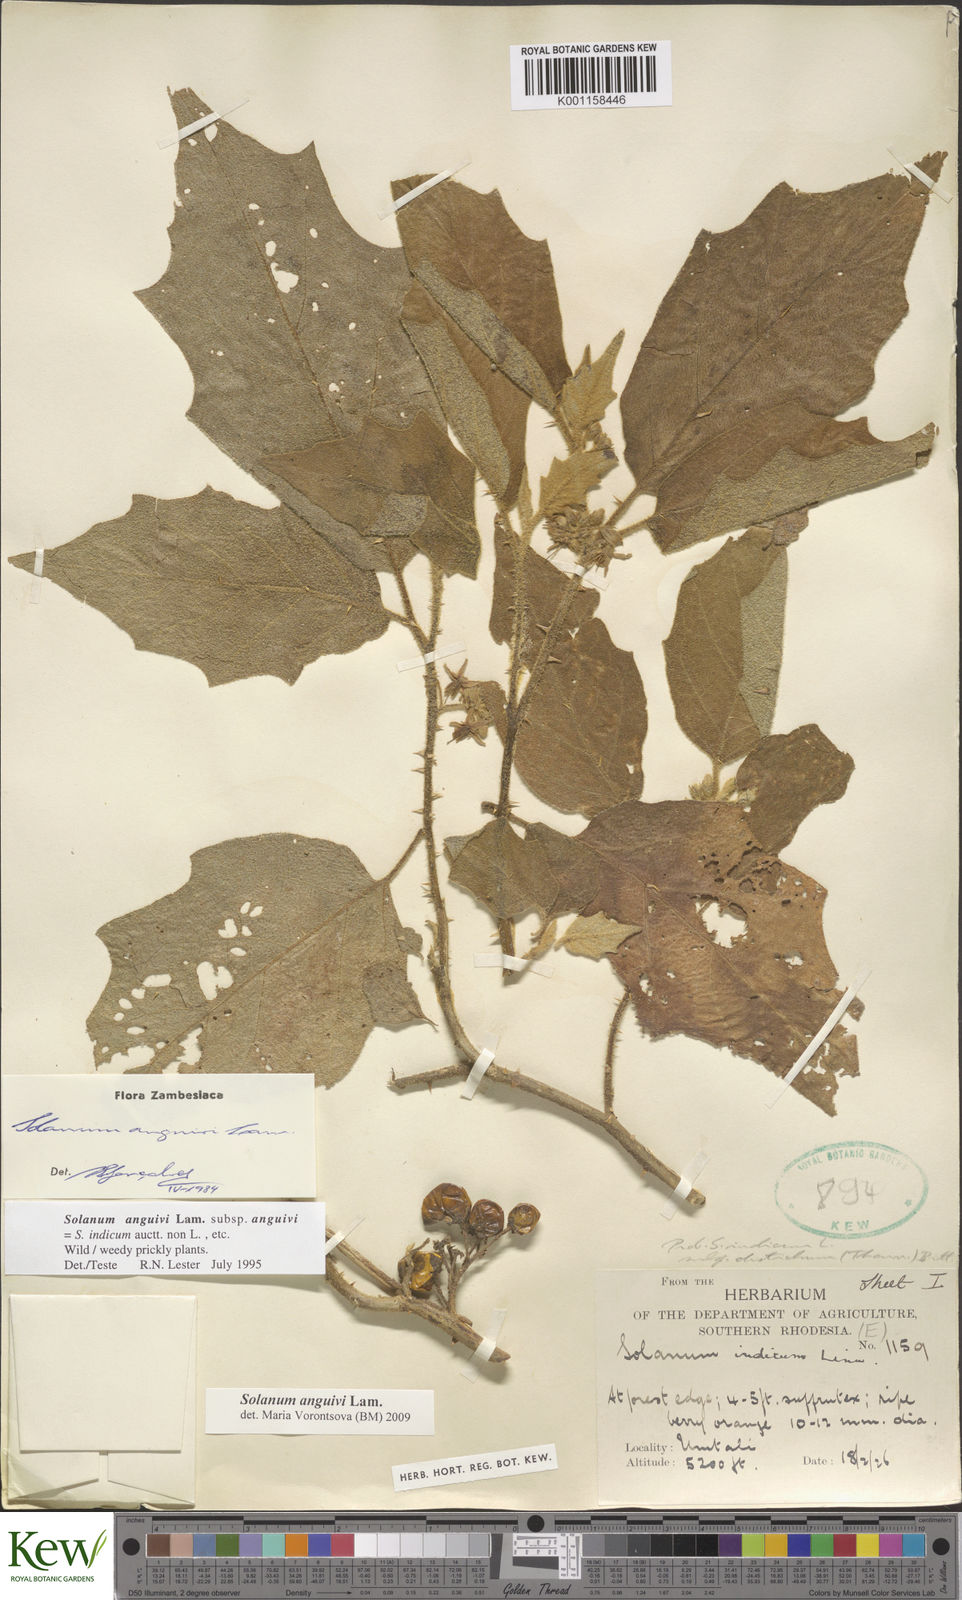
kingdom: Plantae
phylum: Tracheophyta
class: Magnoliopsida
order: Solanales
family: Solanaceae
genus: Solanum
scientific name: Solanum anguivi
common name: Forest bitterberry
